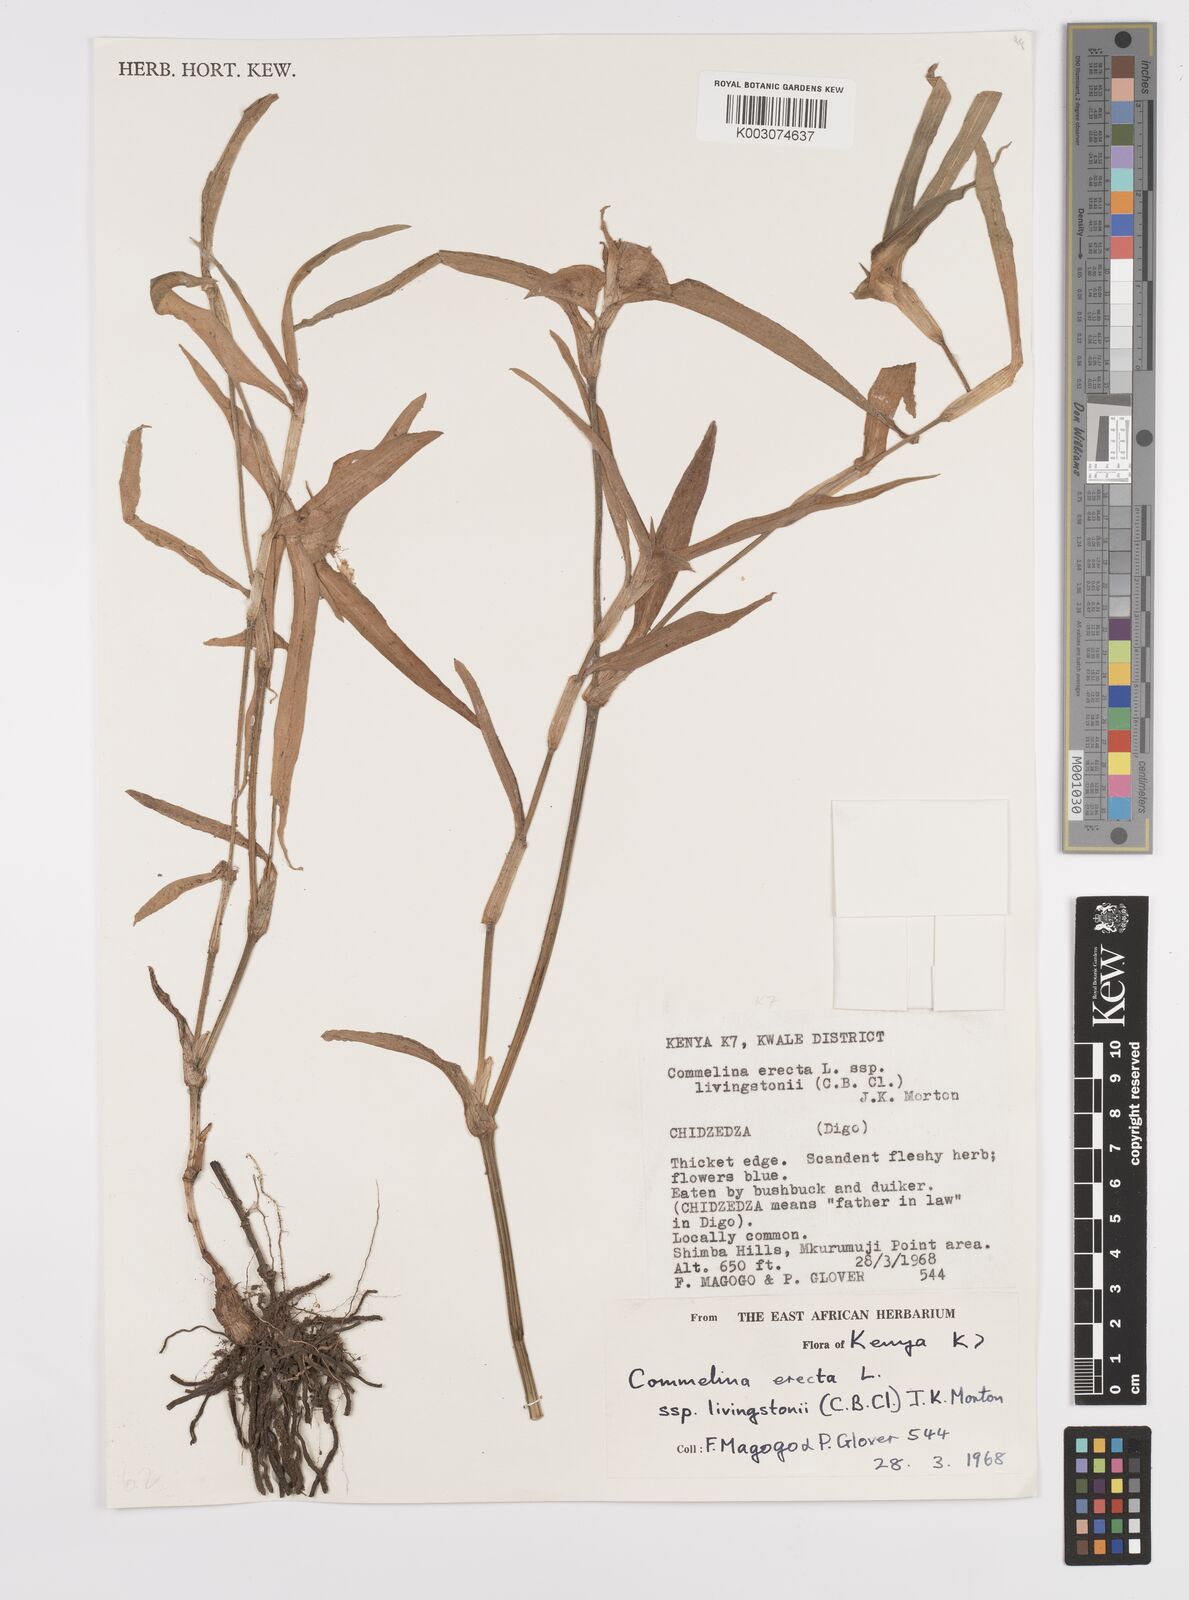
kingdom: Plantae
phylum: Tracheophyta
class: Liliopsida
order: Commelinales
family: Commelinaceae
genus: Commelina
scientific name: Commelina erecta
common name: Blousel blommetjie
